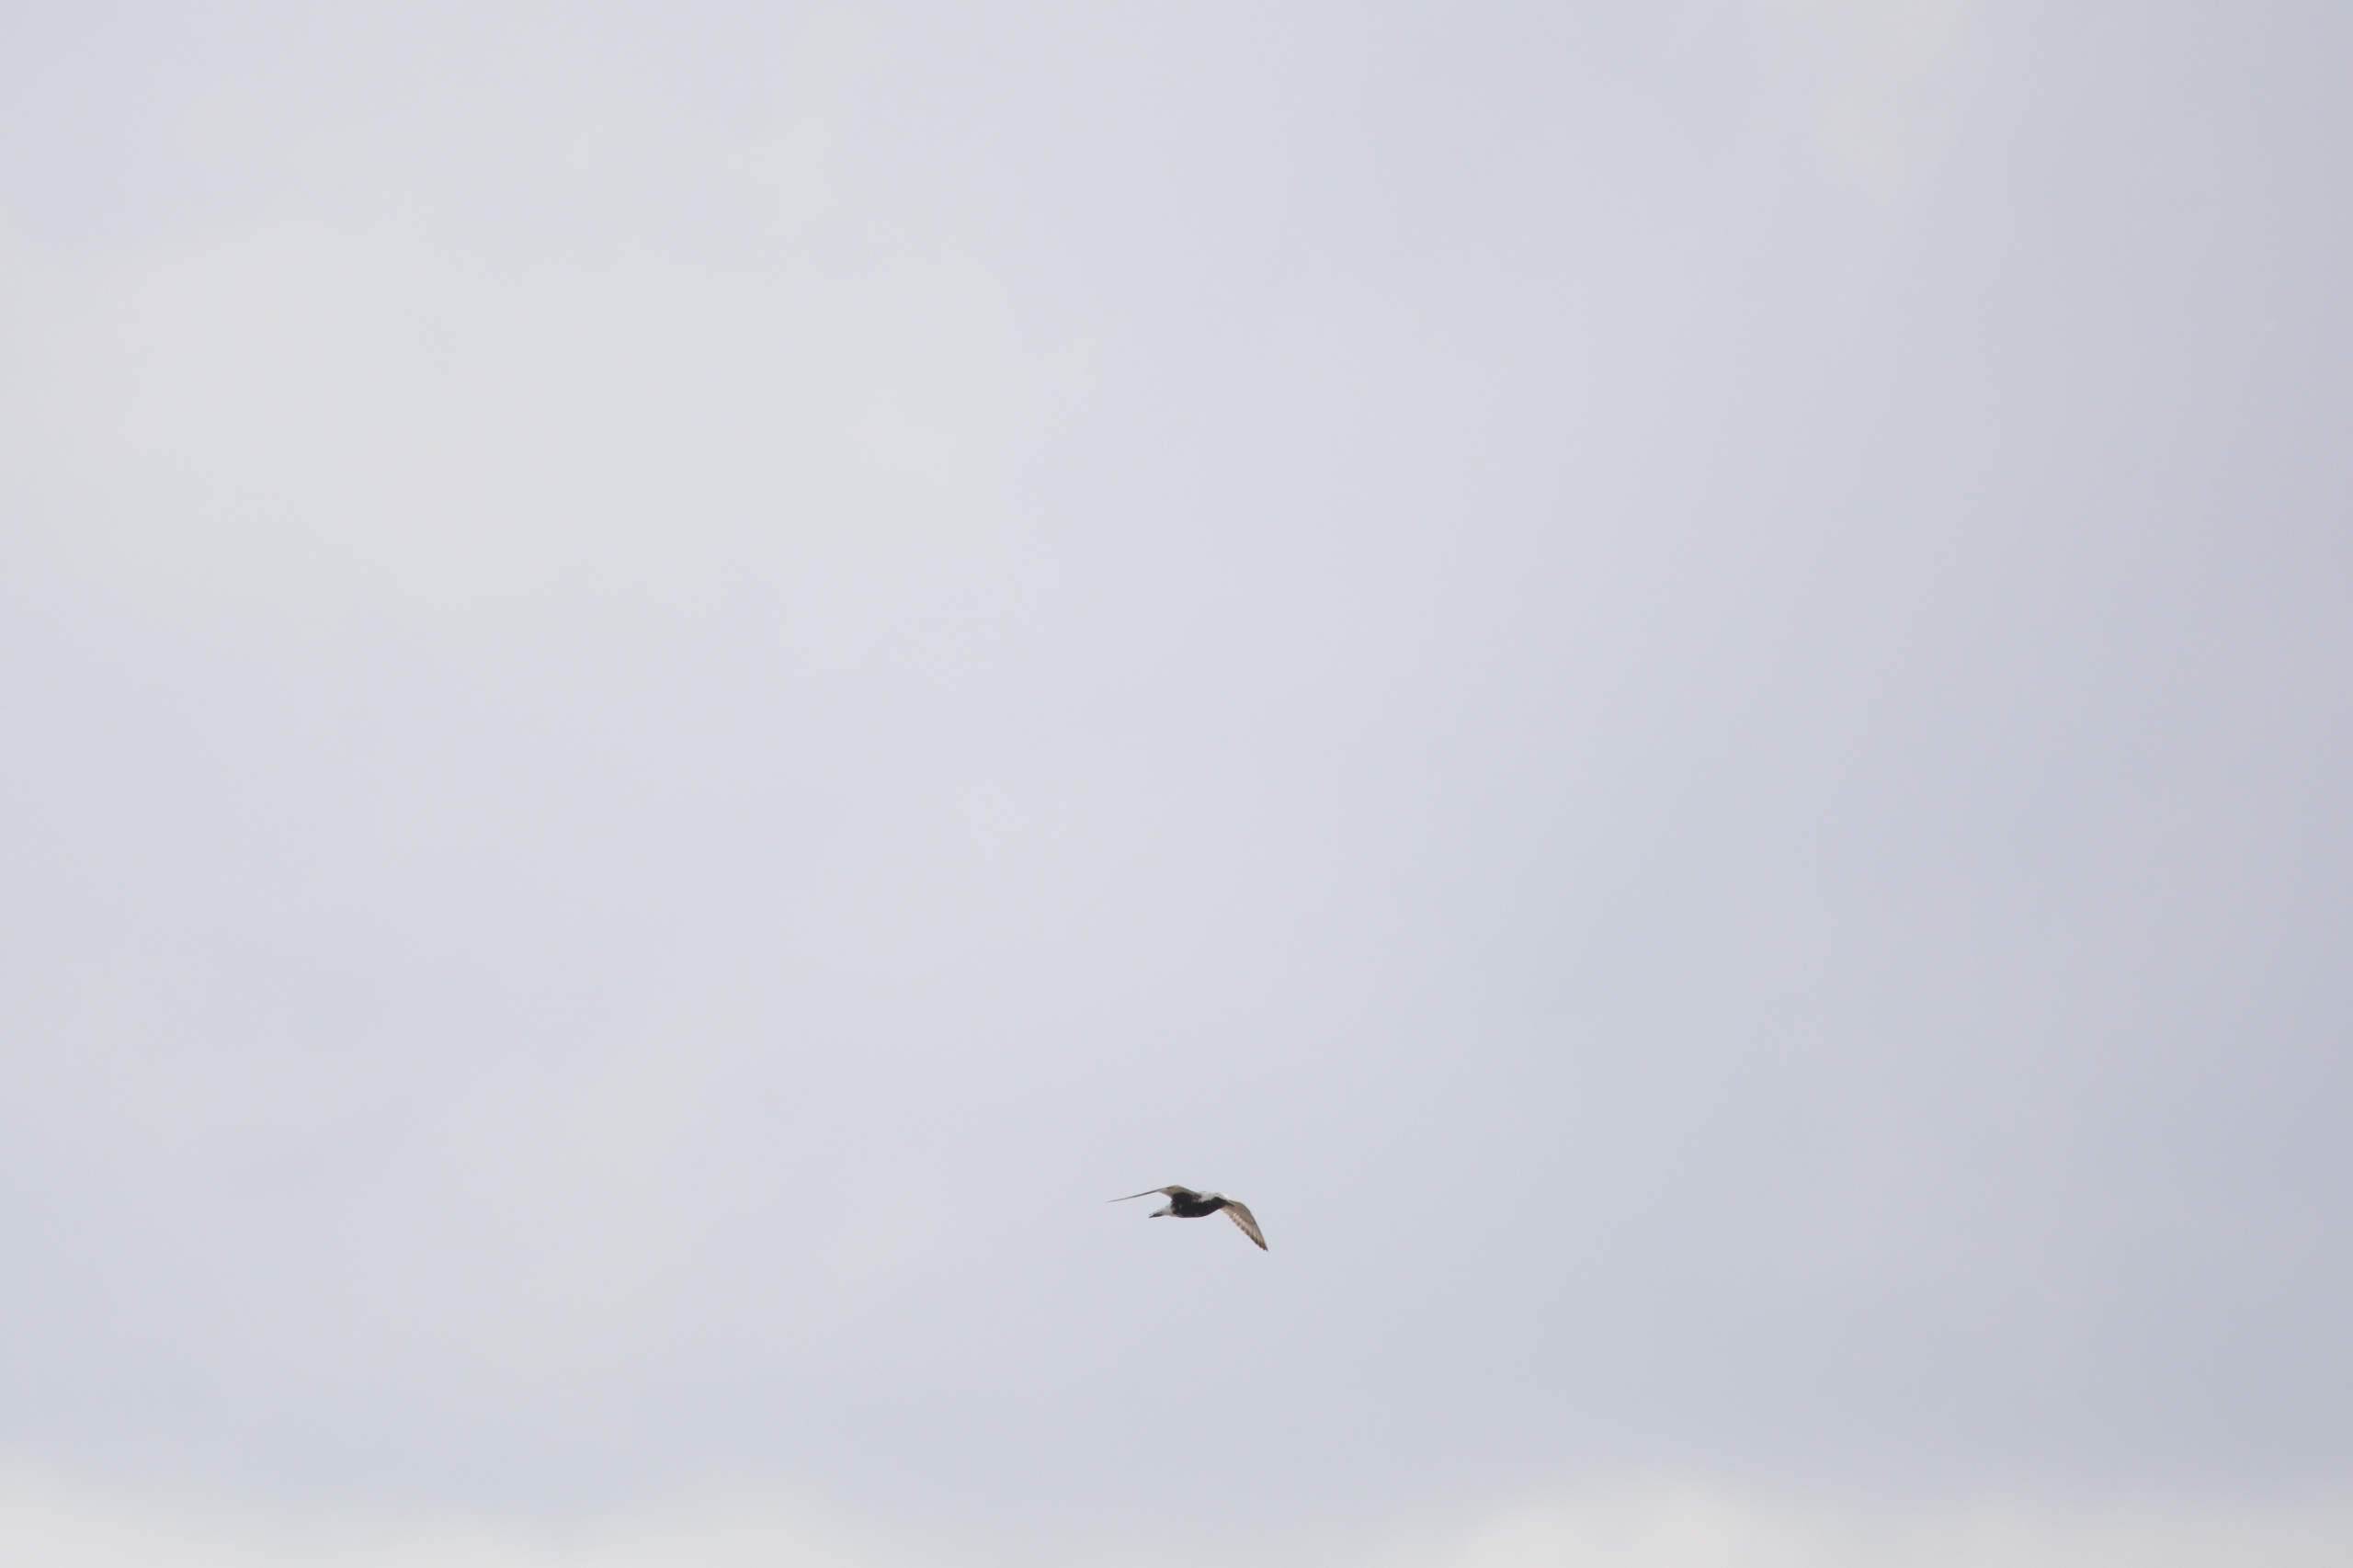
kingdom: Animalia
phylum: Chordata
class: Aves
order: Charadriiformes
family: Charadriidae
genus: Pluvialis
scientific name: Pluvialis squatarola
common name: Strandhjejle
